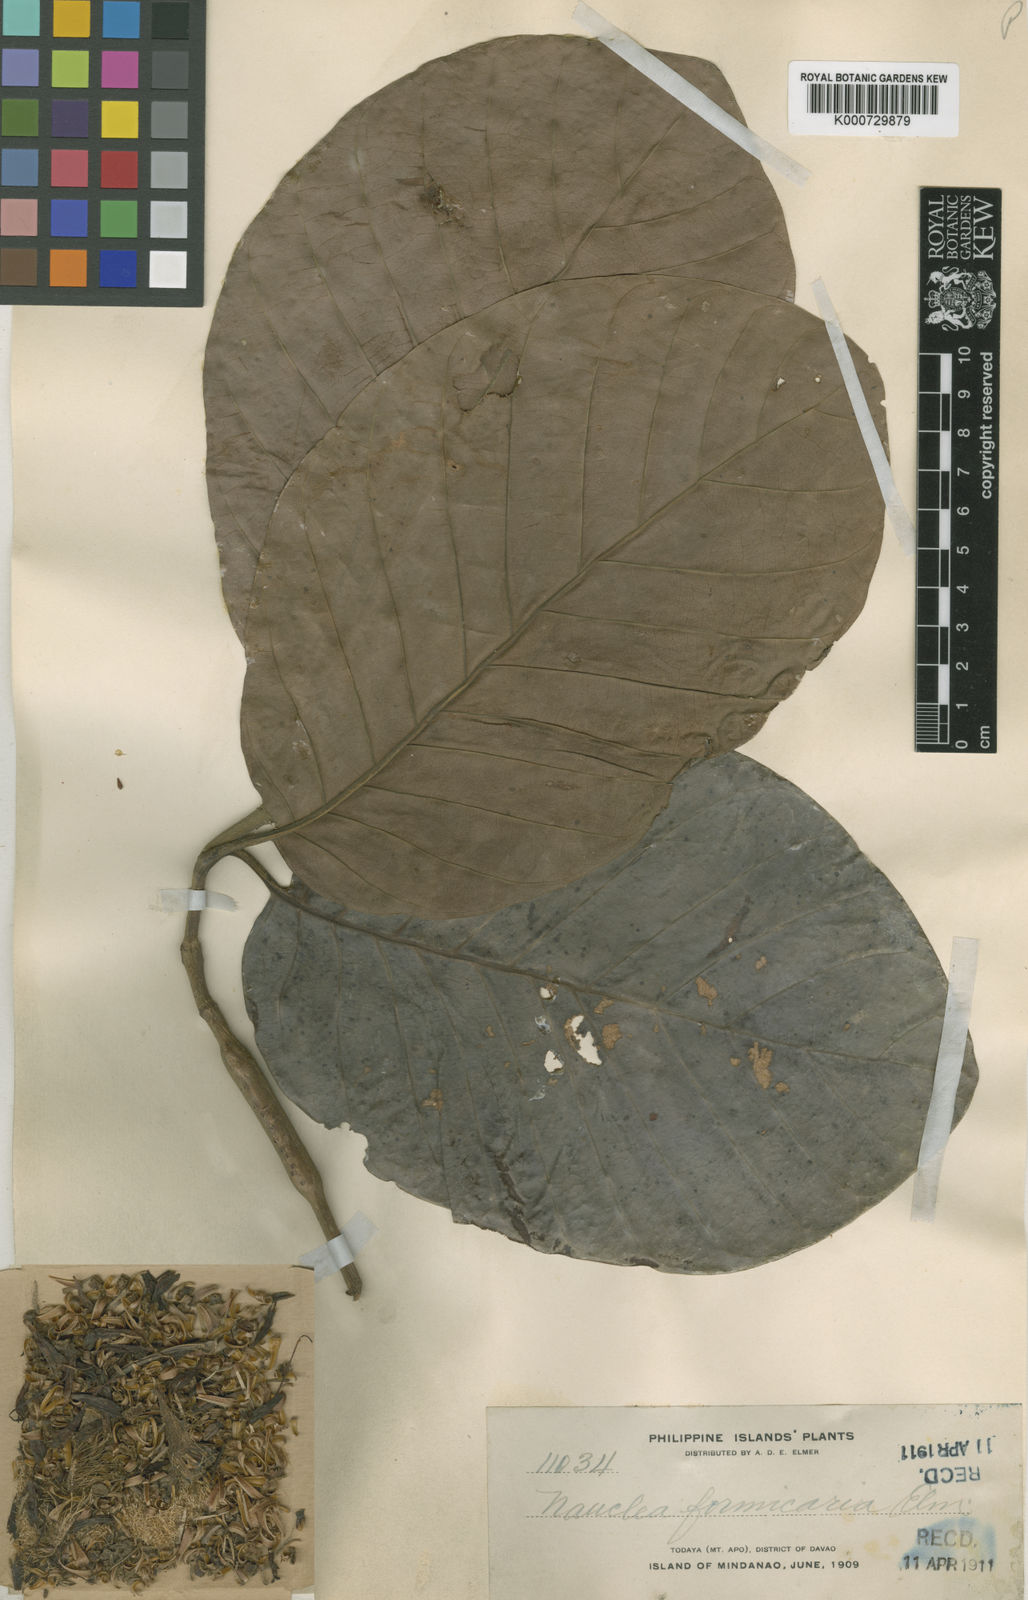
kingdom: Plantae
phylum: Tracheophyta
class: Magnoliopsida
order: Gentianales
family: Rubiaceae
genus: Neonauclea
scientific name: Neonauclea formicaria
